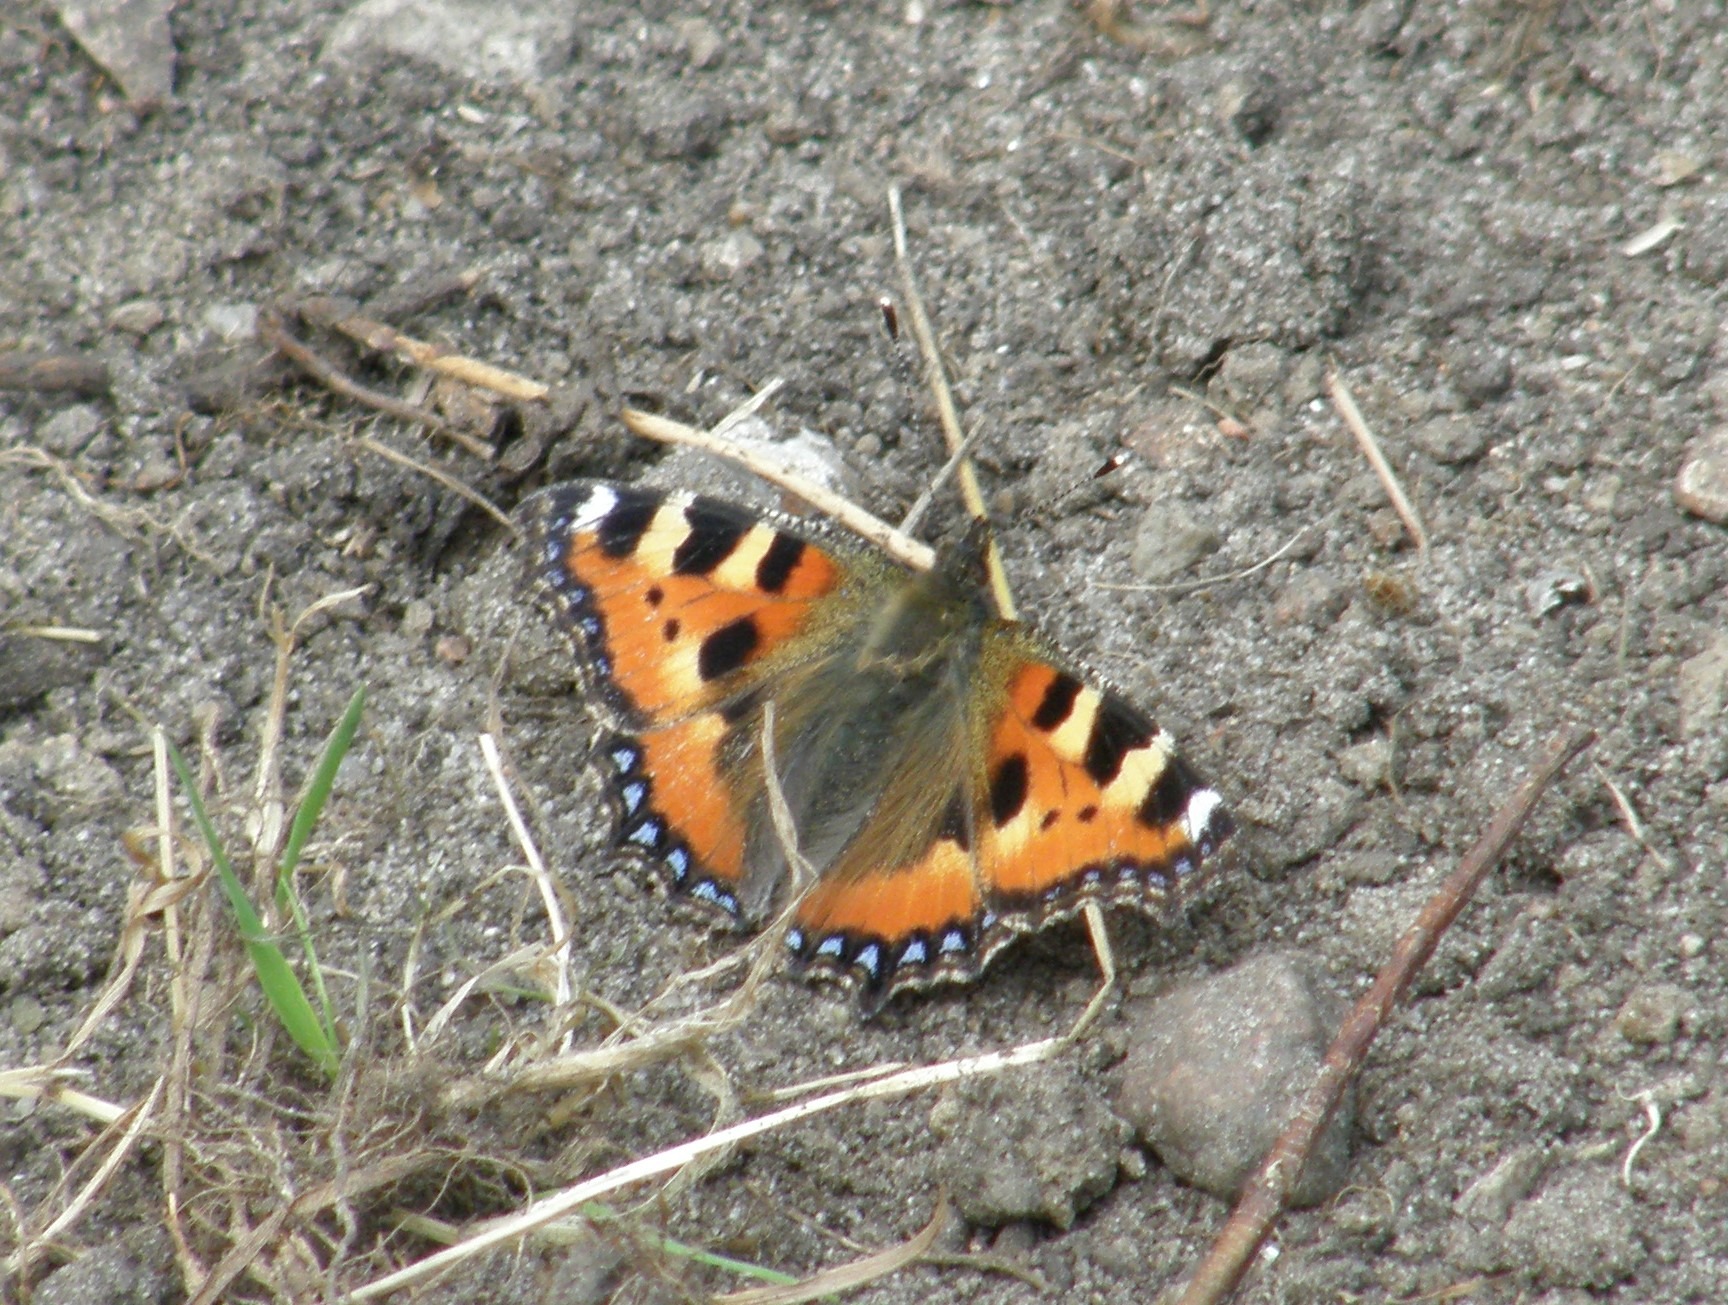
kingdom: Animalia
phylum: Arthropoda
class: Insecta
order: Lepidoptera
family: Nymphalidae
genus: Aglais
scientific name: Aglais urticae
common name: Nældens takvinge
